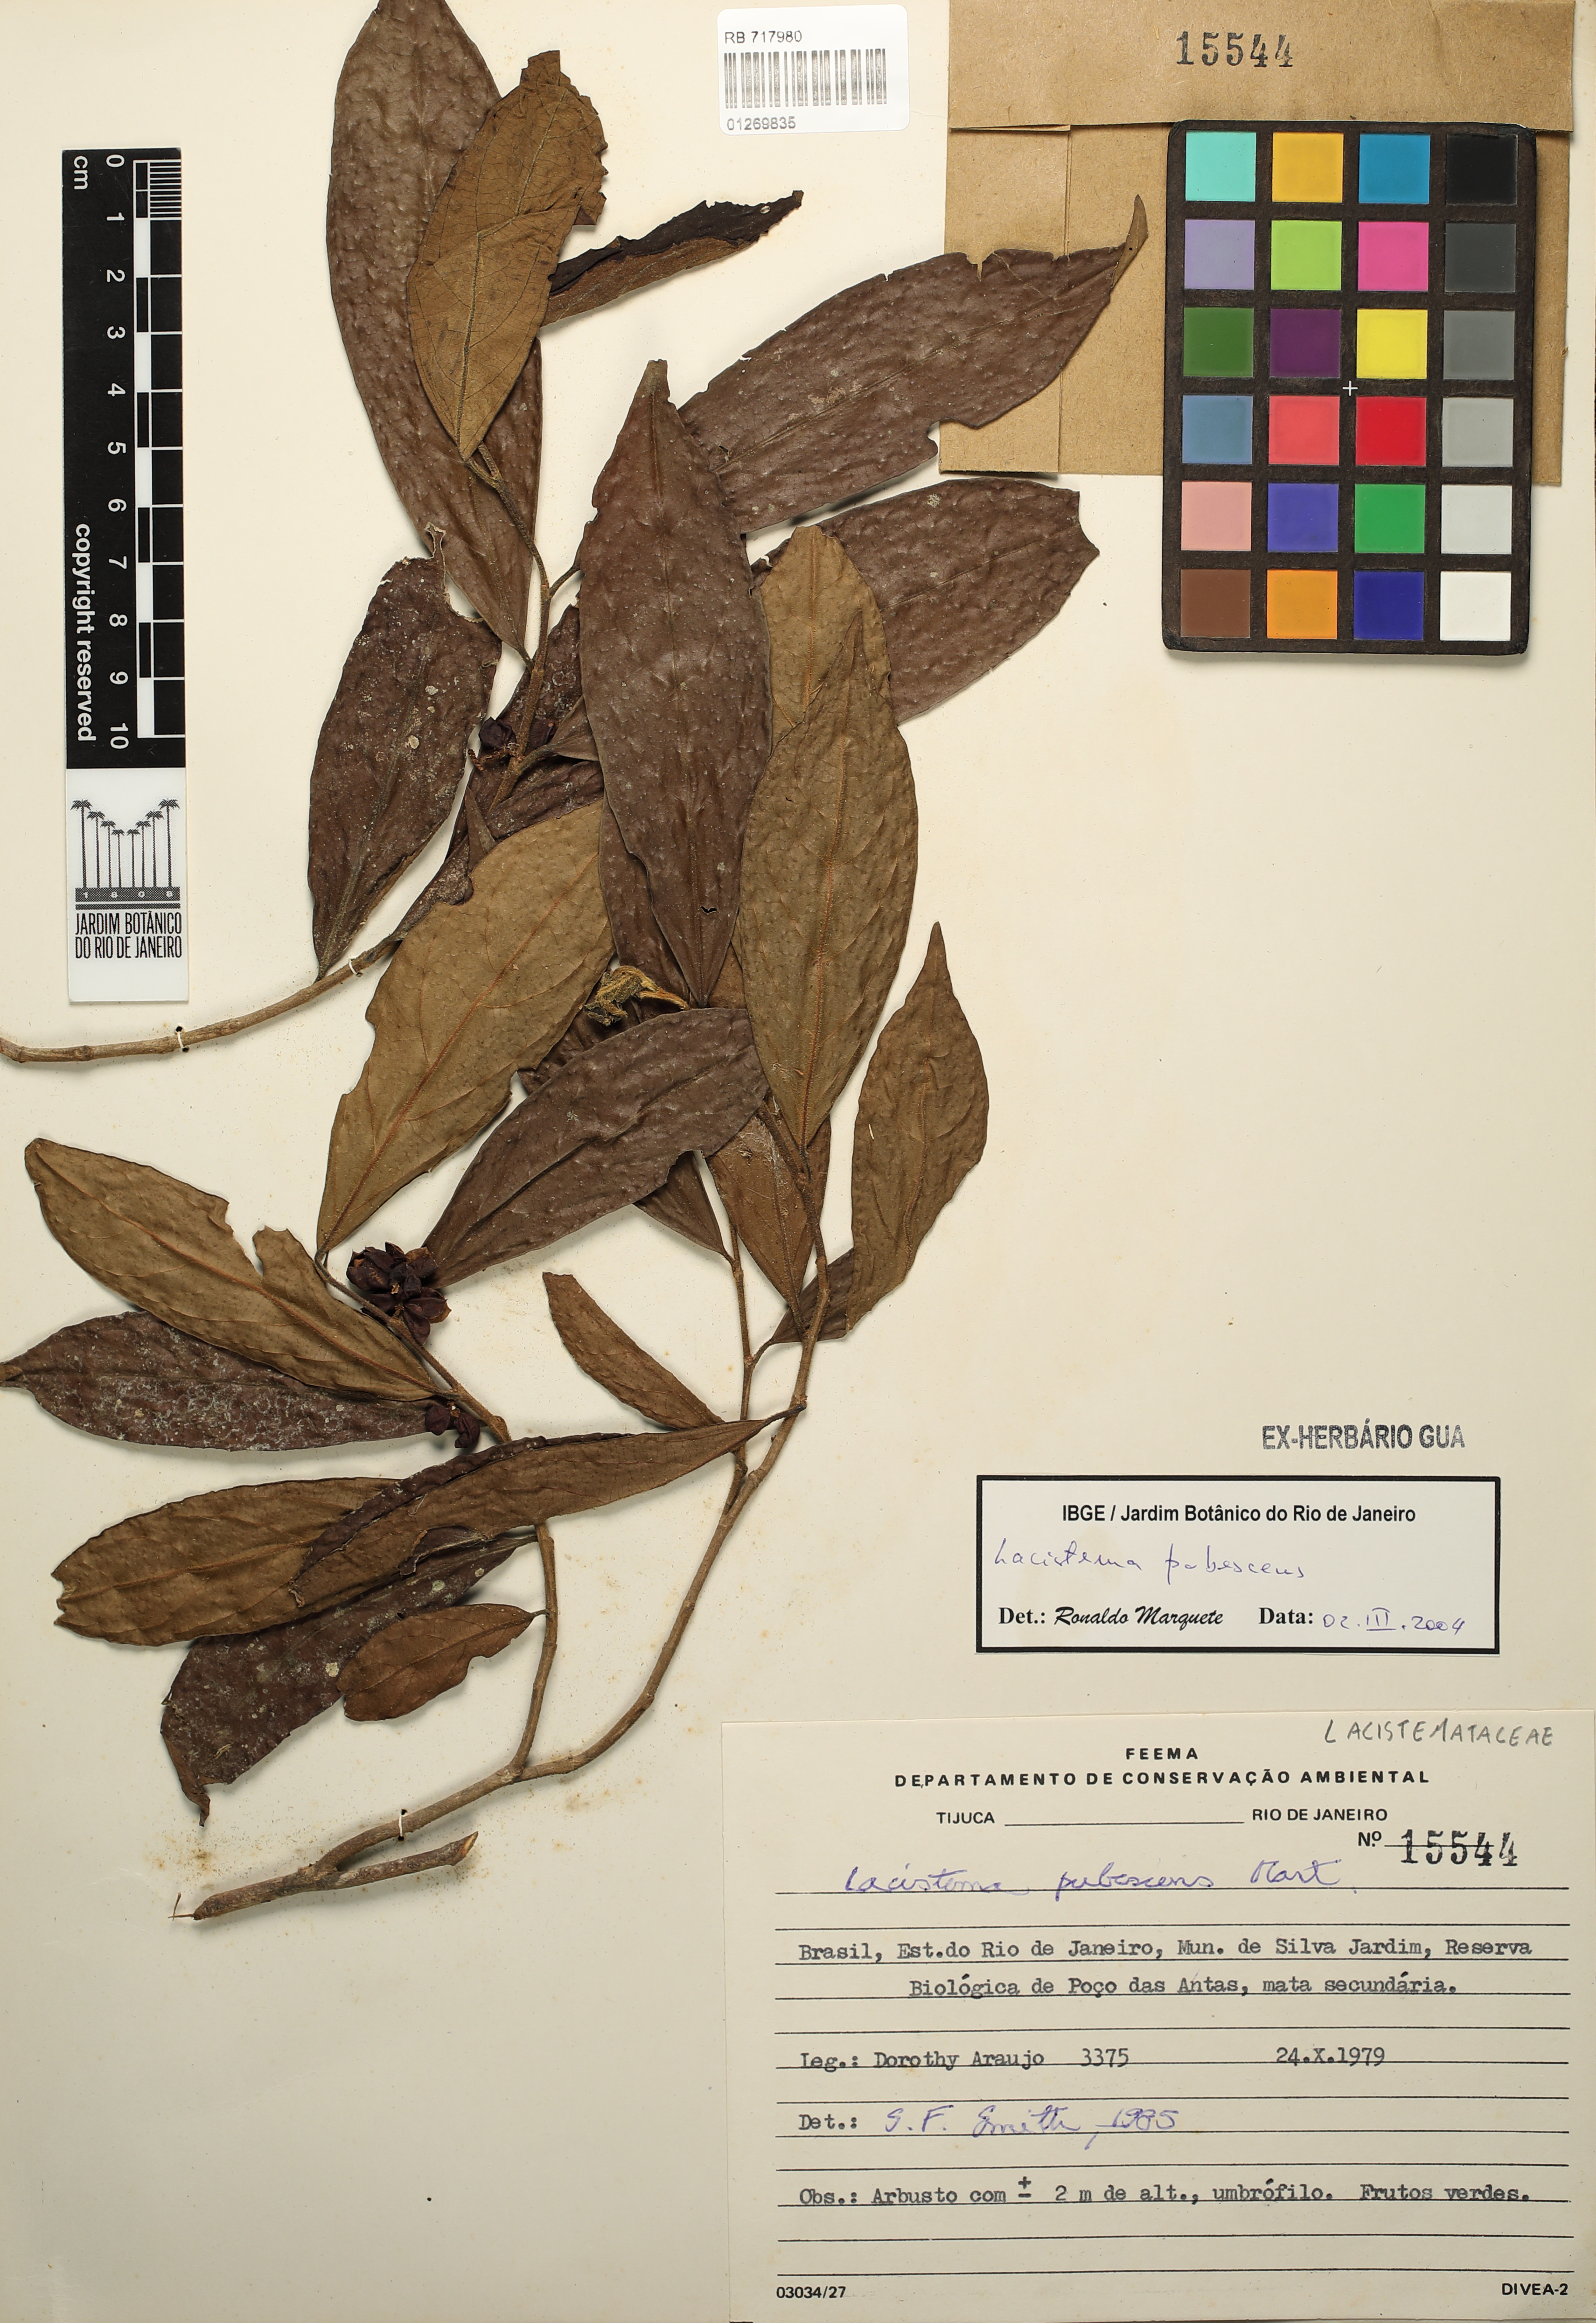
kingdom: Plantae
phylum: Tracheophyta
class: Magnoliopsida
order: Malpighiales
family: Lacistemataceae
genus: Lacistema
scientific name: Lacistema pubescens
